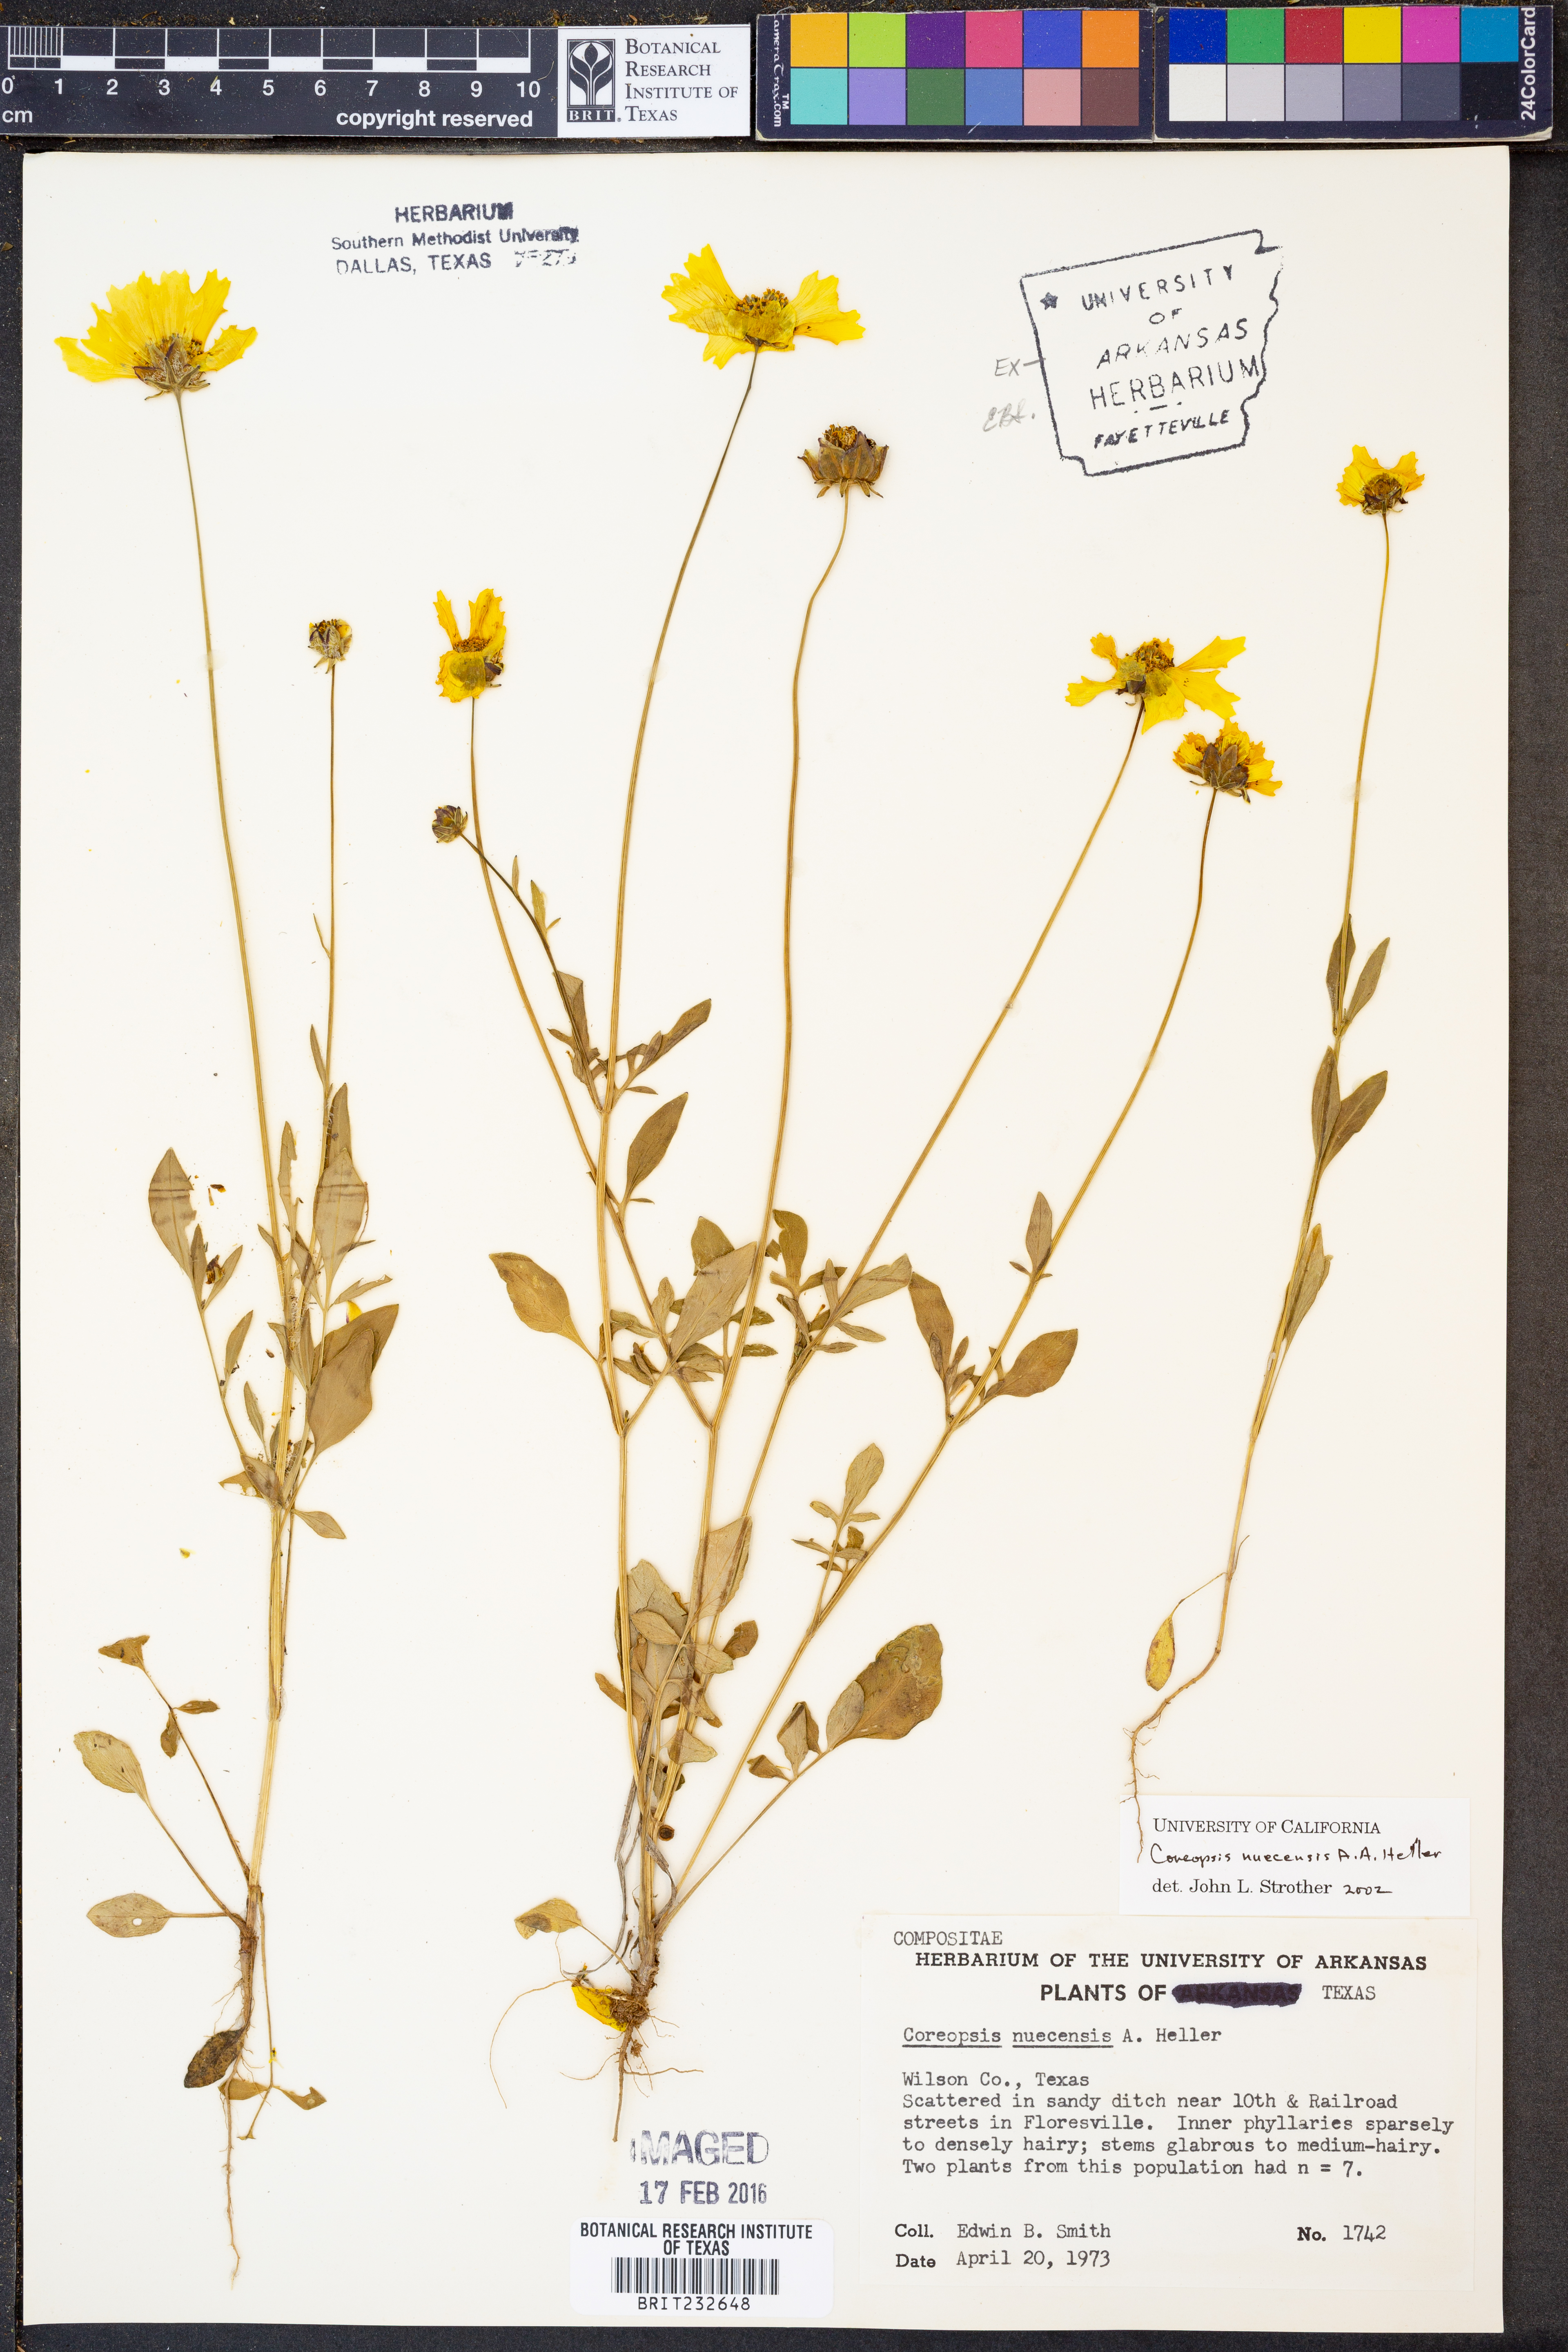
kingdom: Plantae
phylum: Tracheophyta
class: Magnoliopsida
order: Asterales
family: Asteraceae
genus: Coreopsis
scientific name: Coreopsis nuecensis
